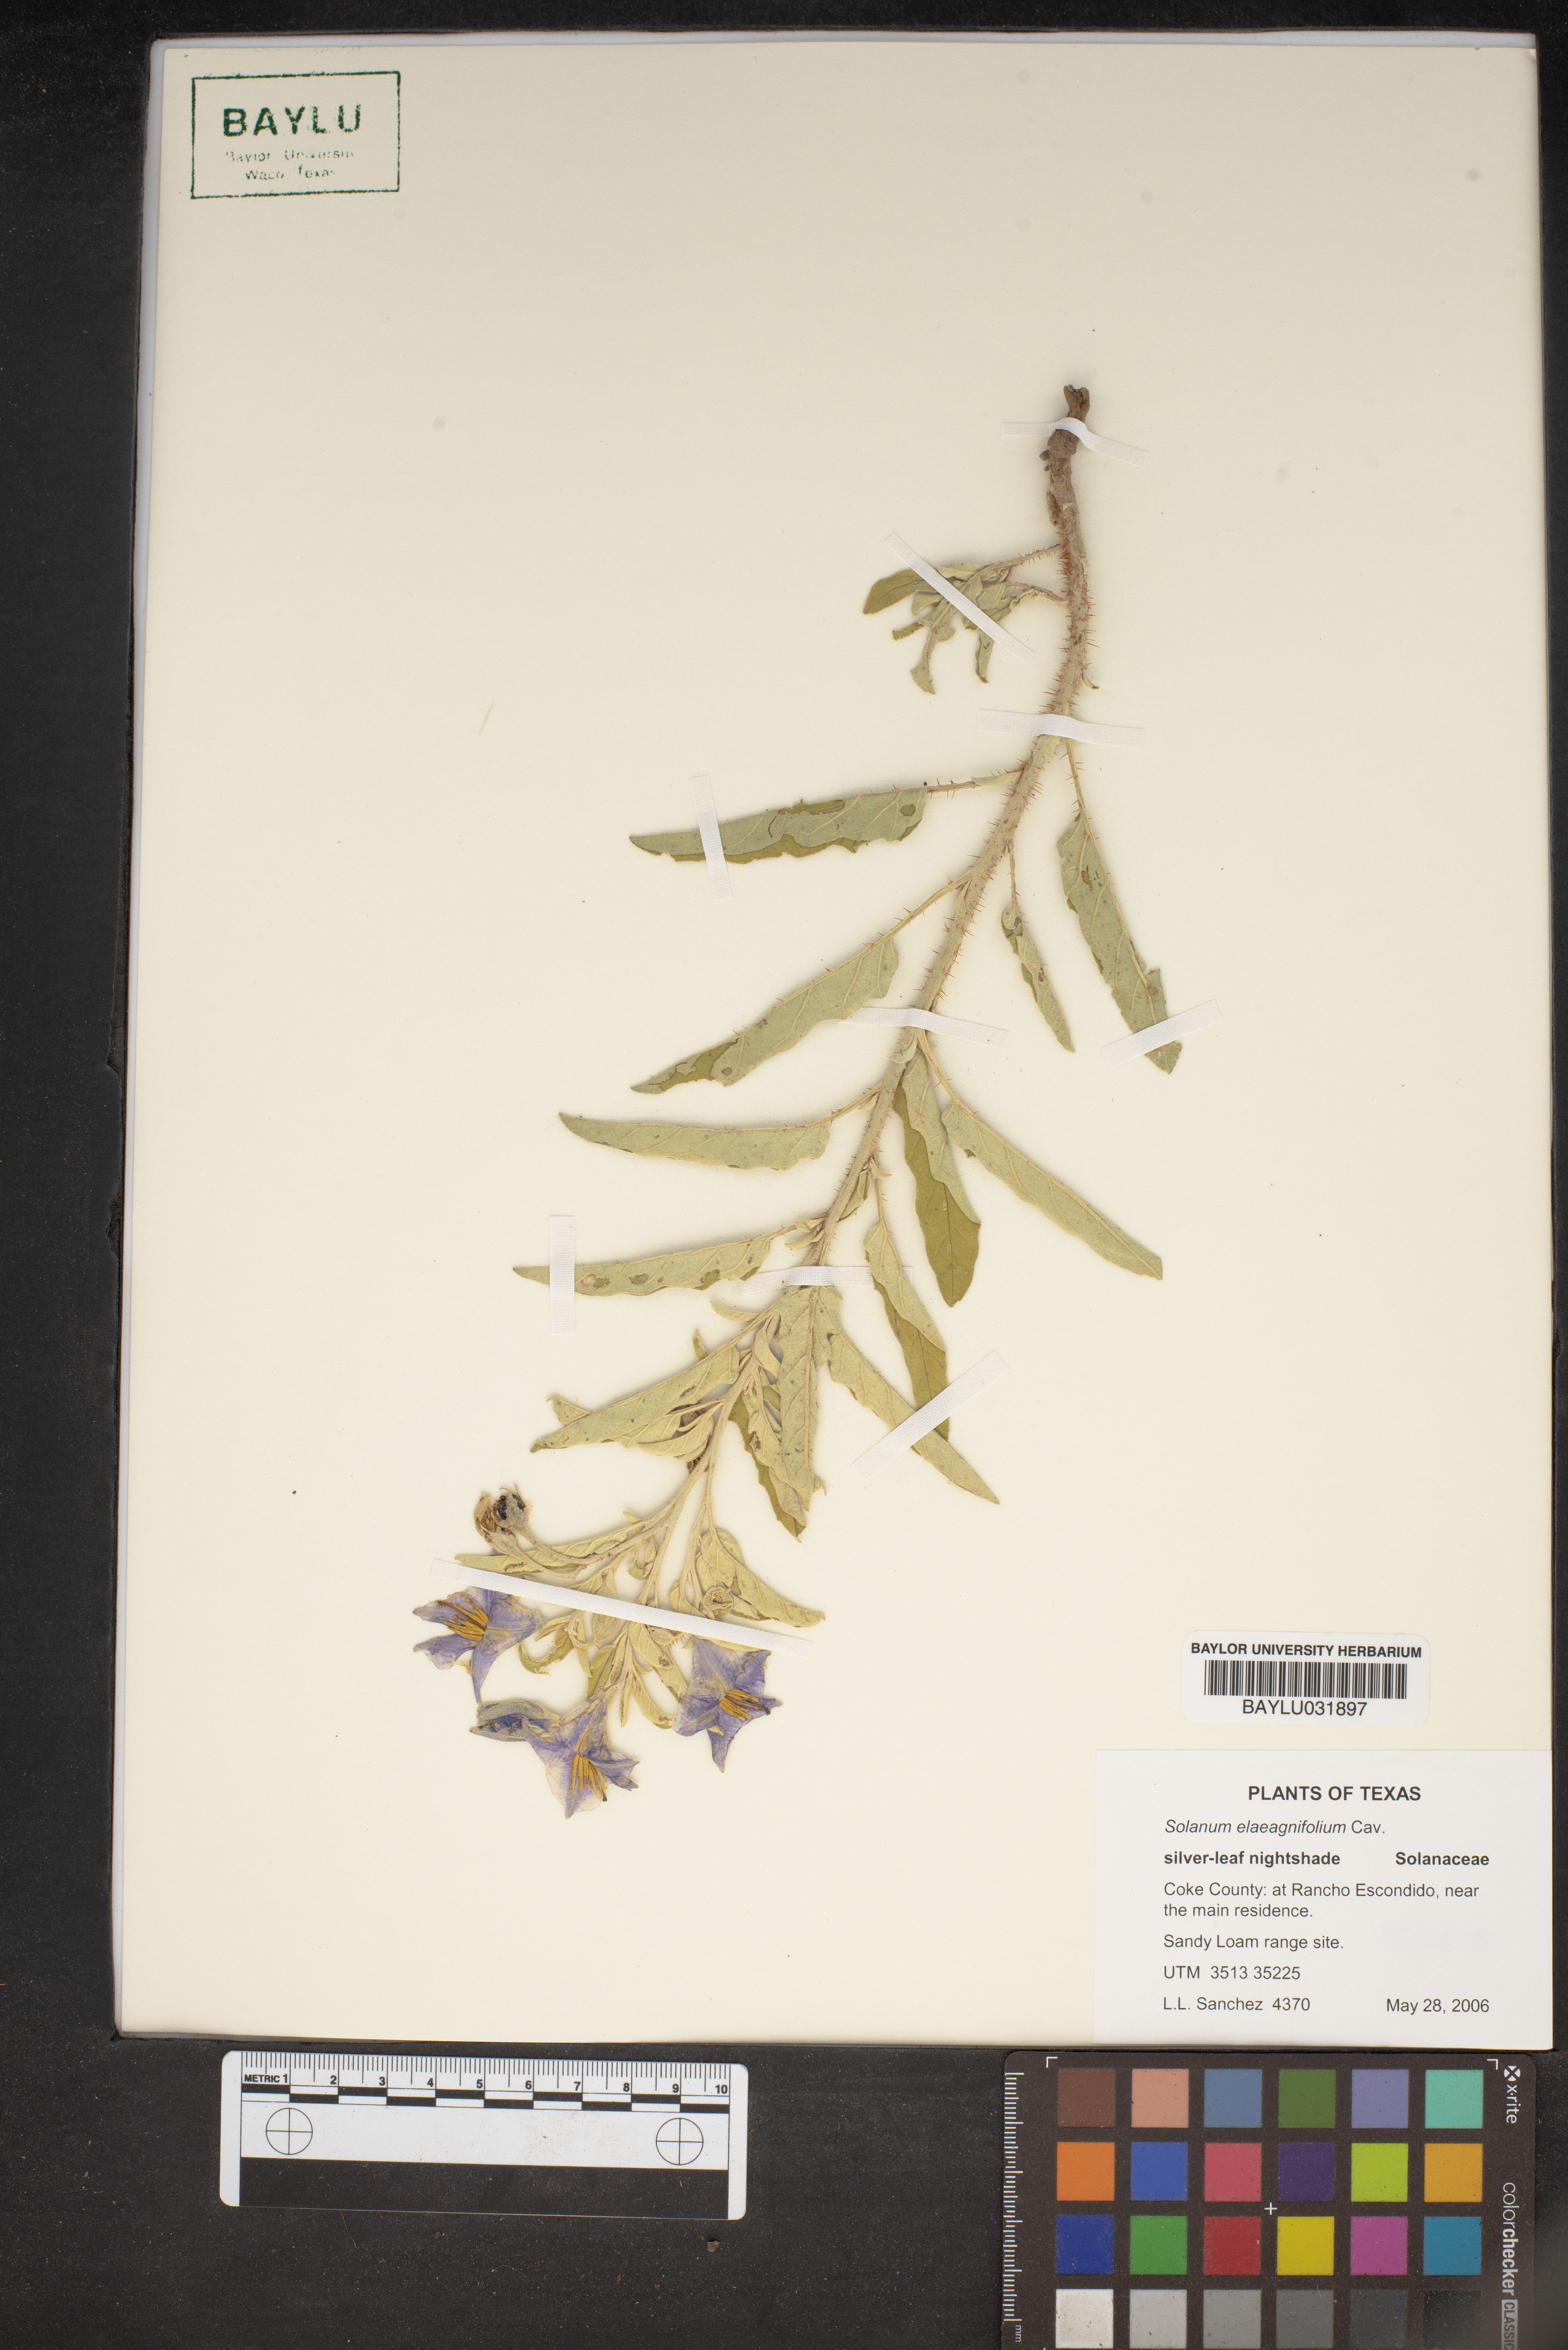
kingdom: Plantae
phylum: Tracheophyta
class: Magnoliopsida
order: Solanales
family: Solanaceae
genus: Solanum
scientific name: Solanum elaeagnifolium
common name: Silverleaf nightshade
